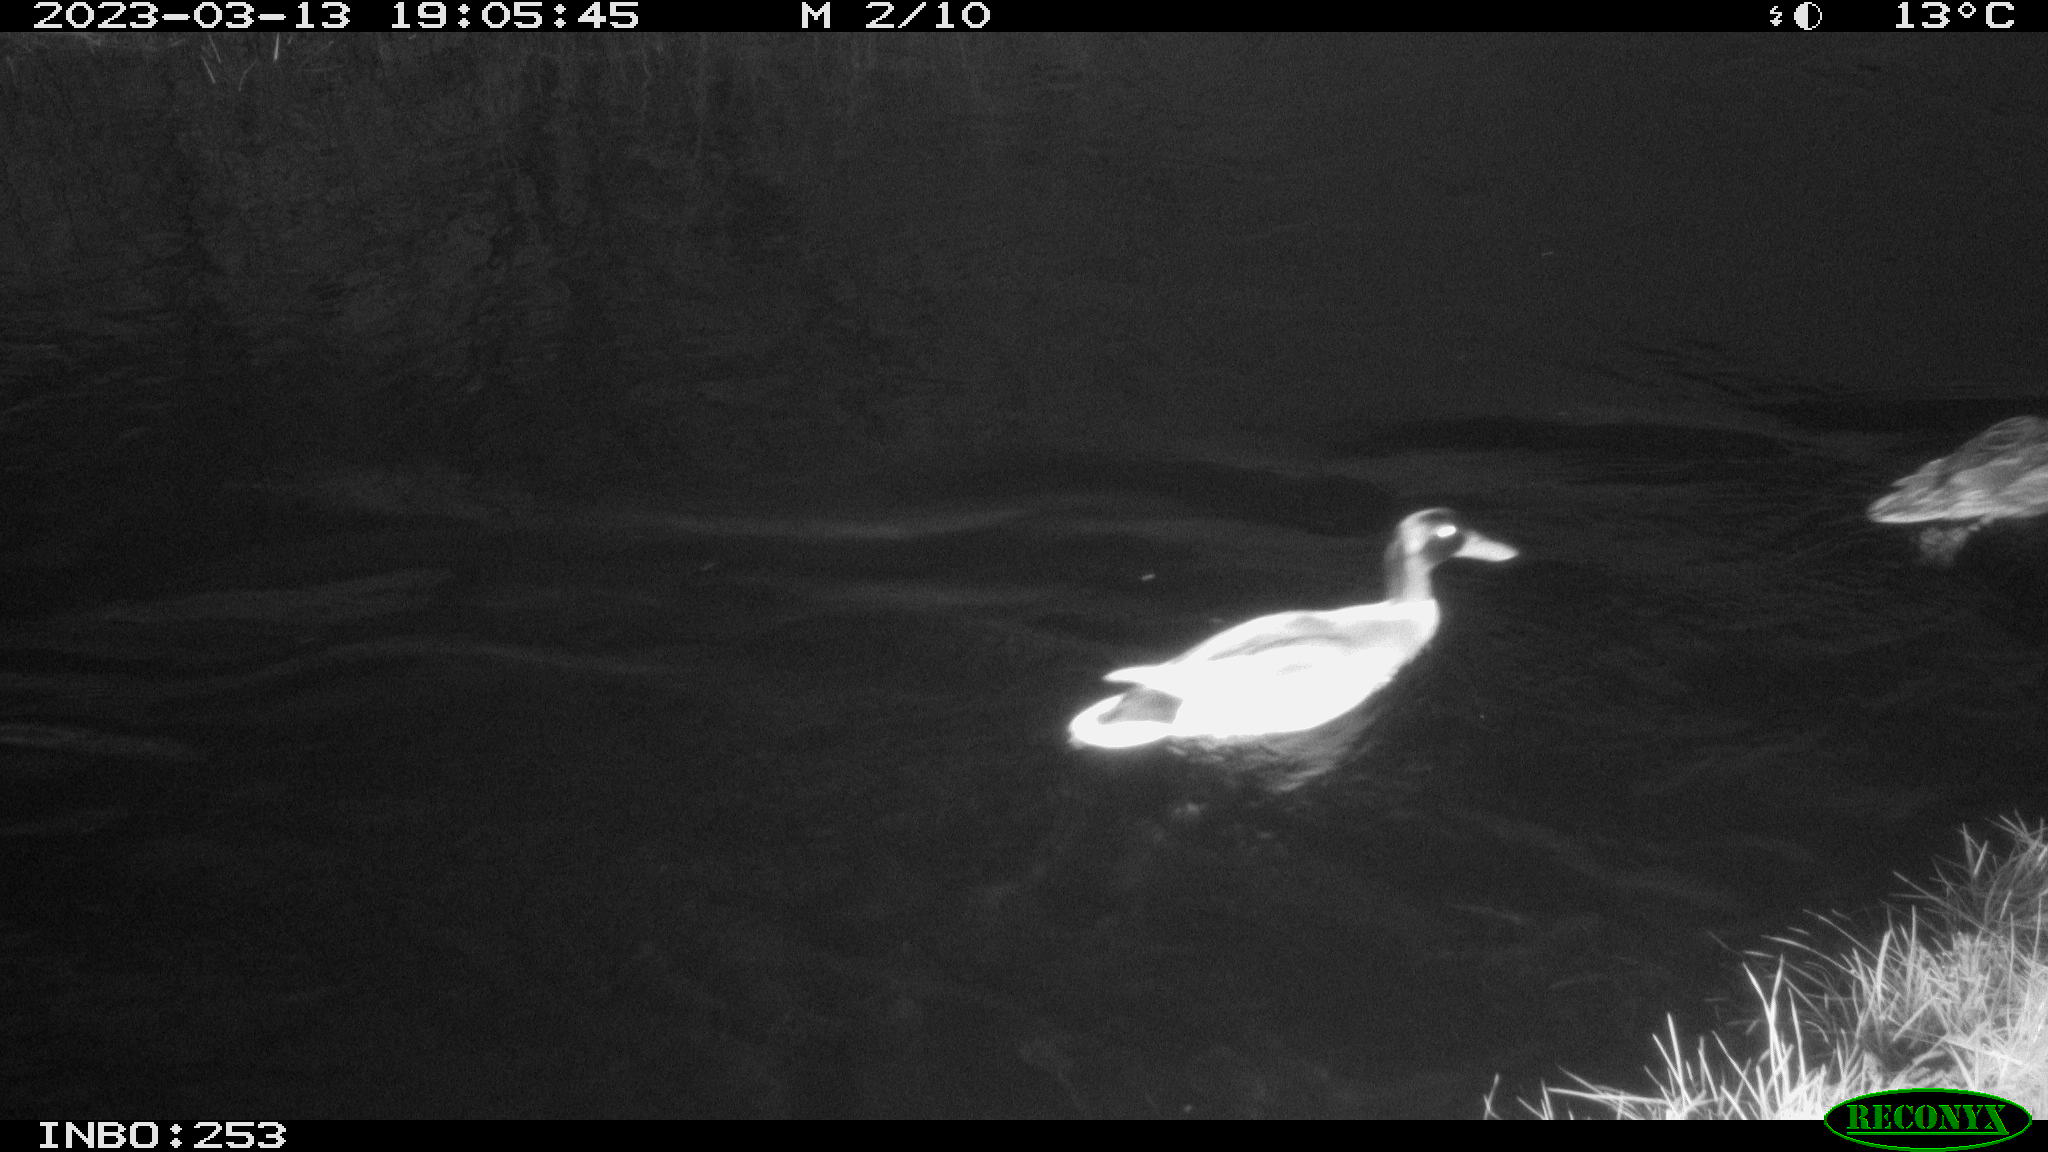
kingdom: Animalia
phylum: Chordata
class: Aves
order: Anseriformes
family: Anatidae
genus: Anas
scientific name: Anas
